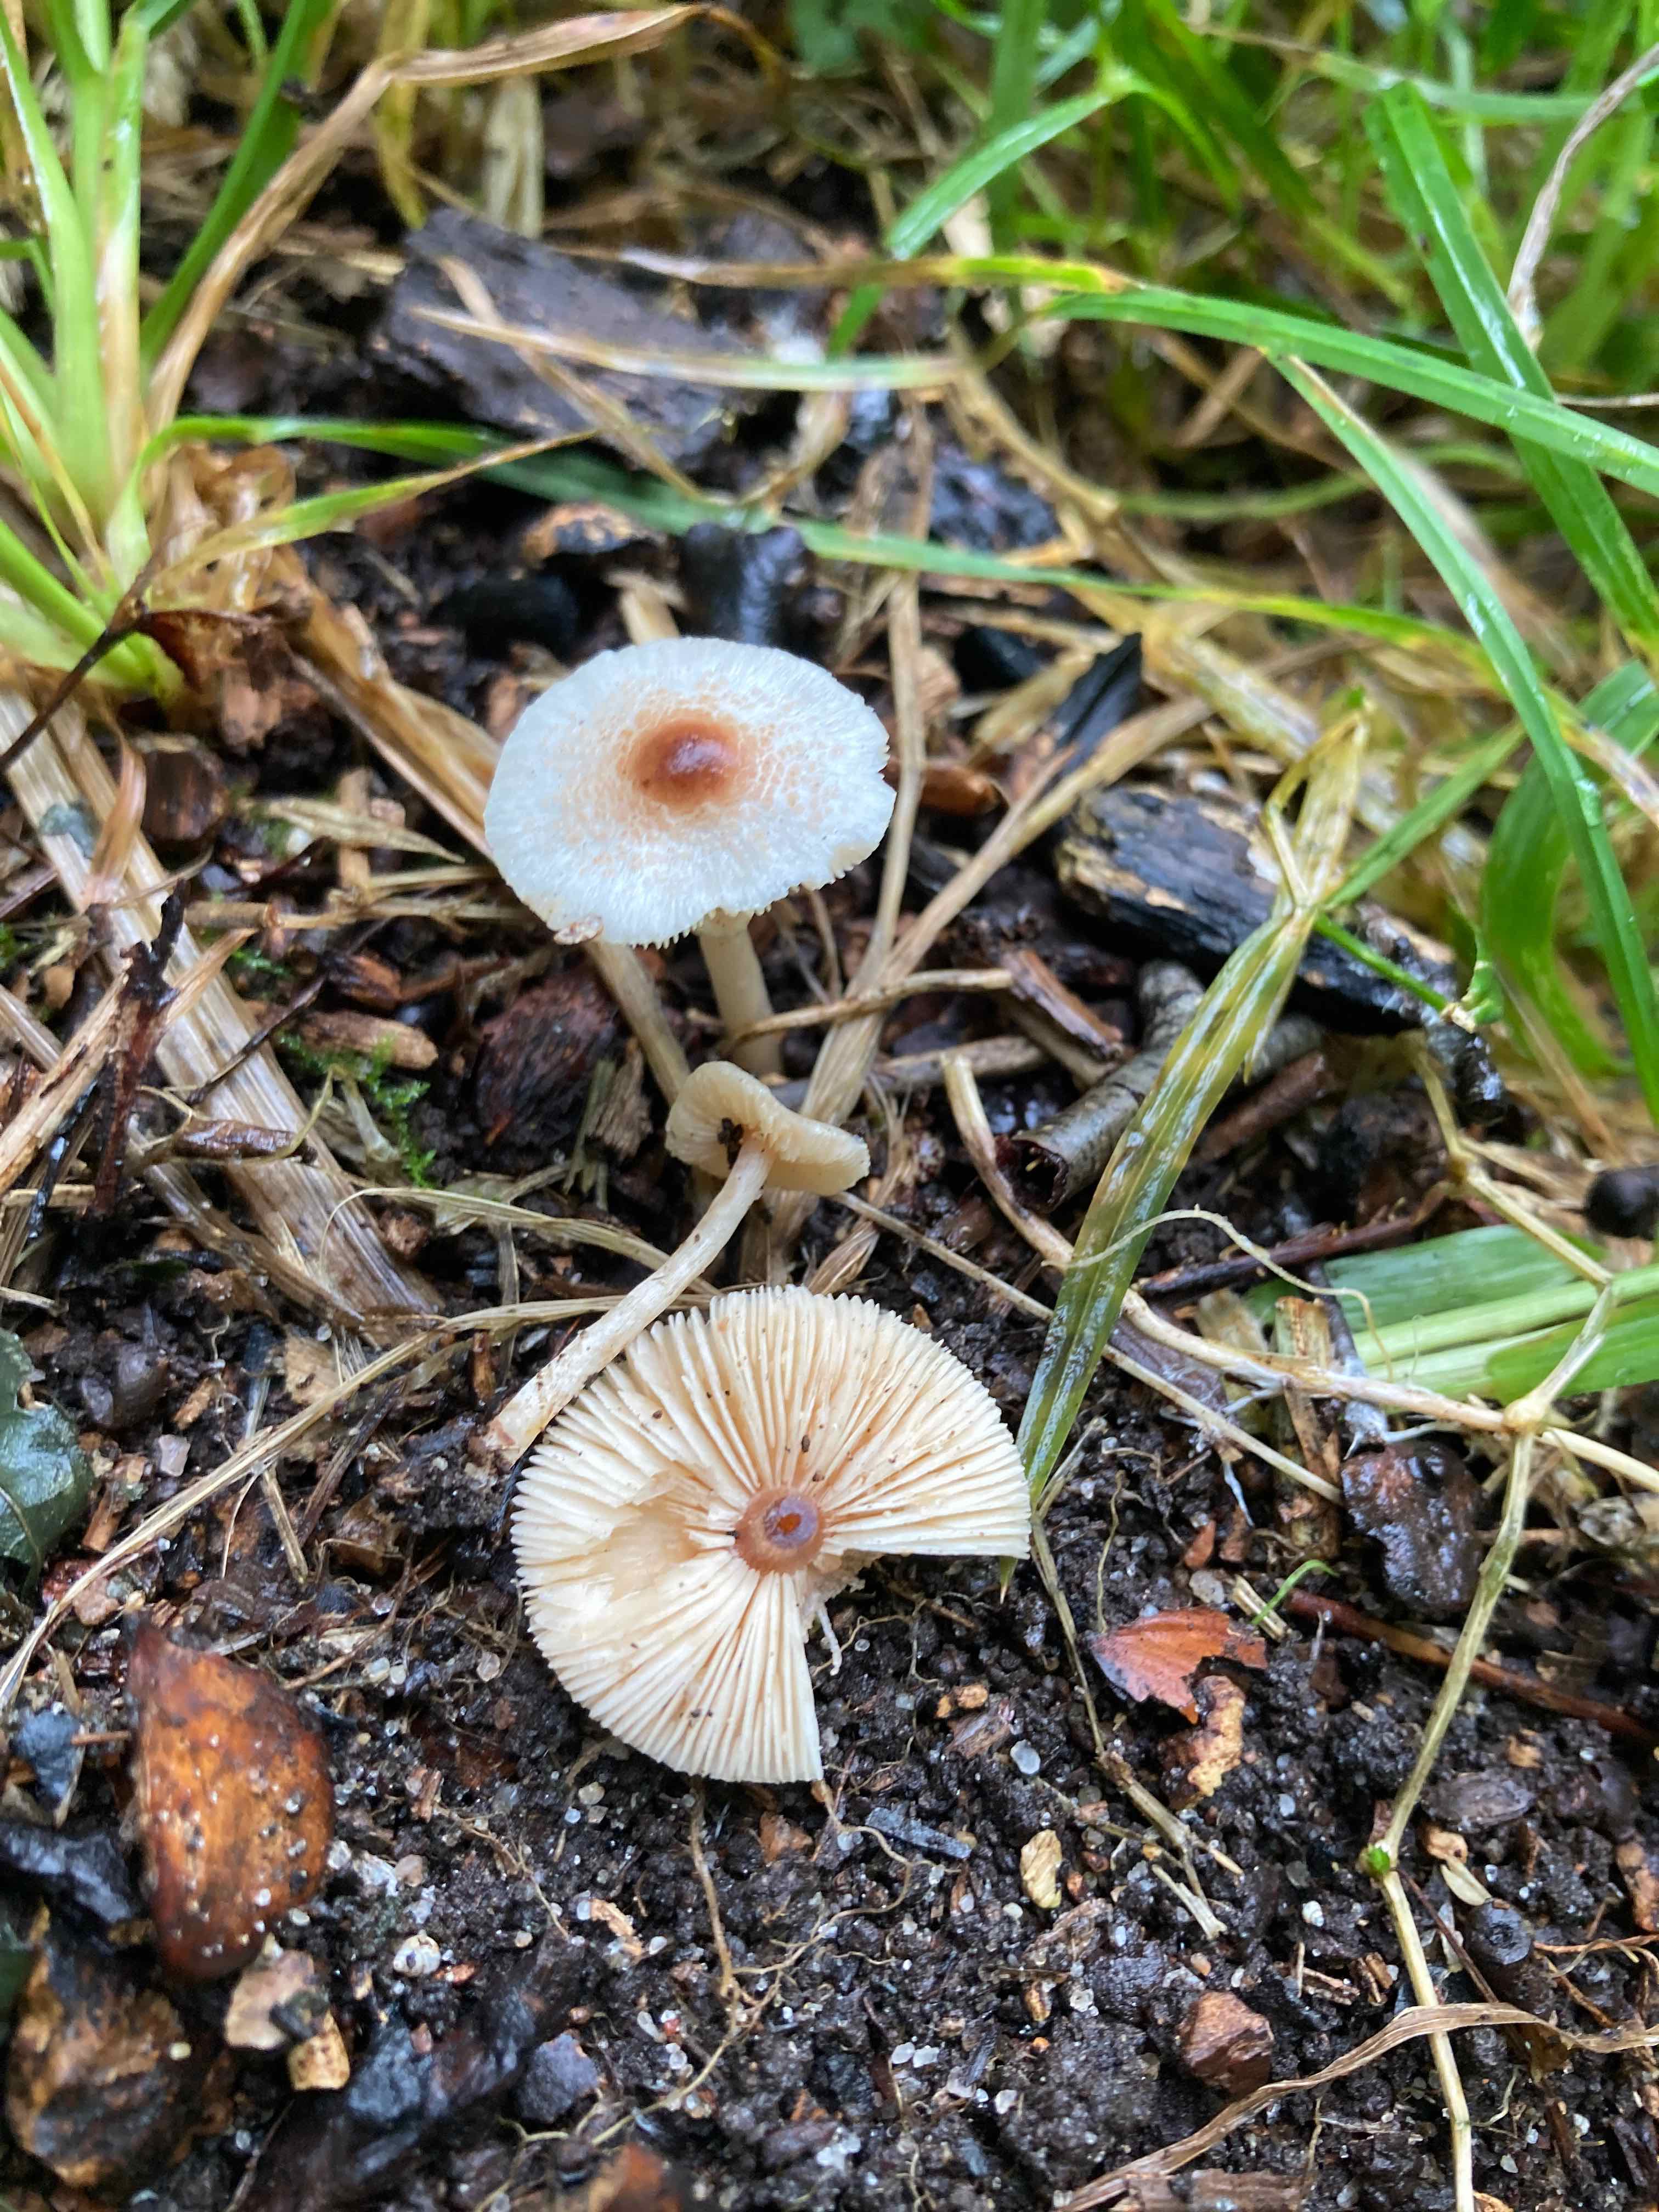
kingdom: Fungi
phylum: Basidiomycota
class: Agaricomycetes
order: Agaricales
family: Agaricaceae
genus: Lepiota
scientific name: Lepiota cristata
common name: stinkende parasolhat
